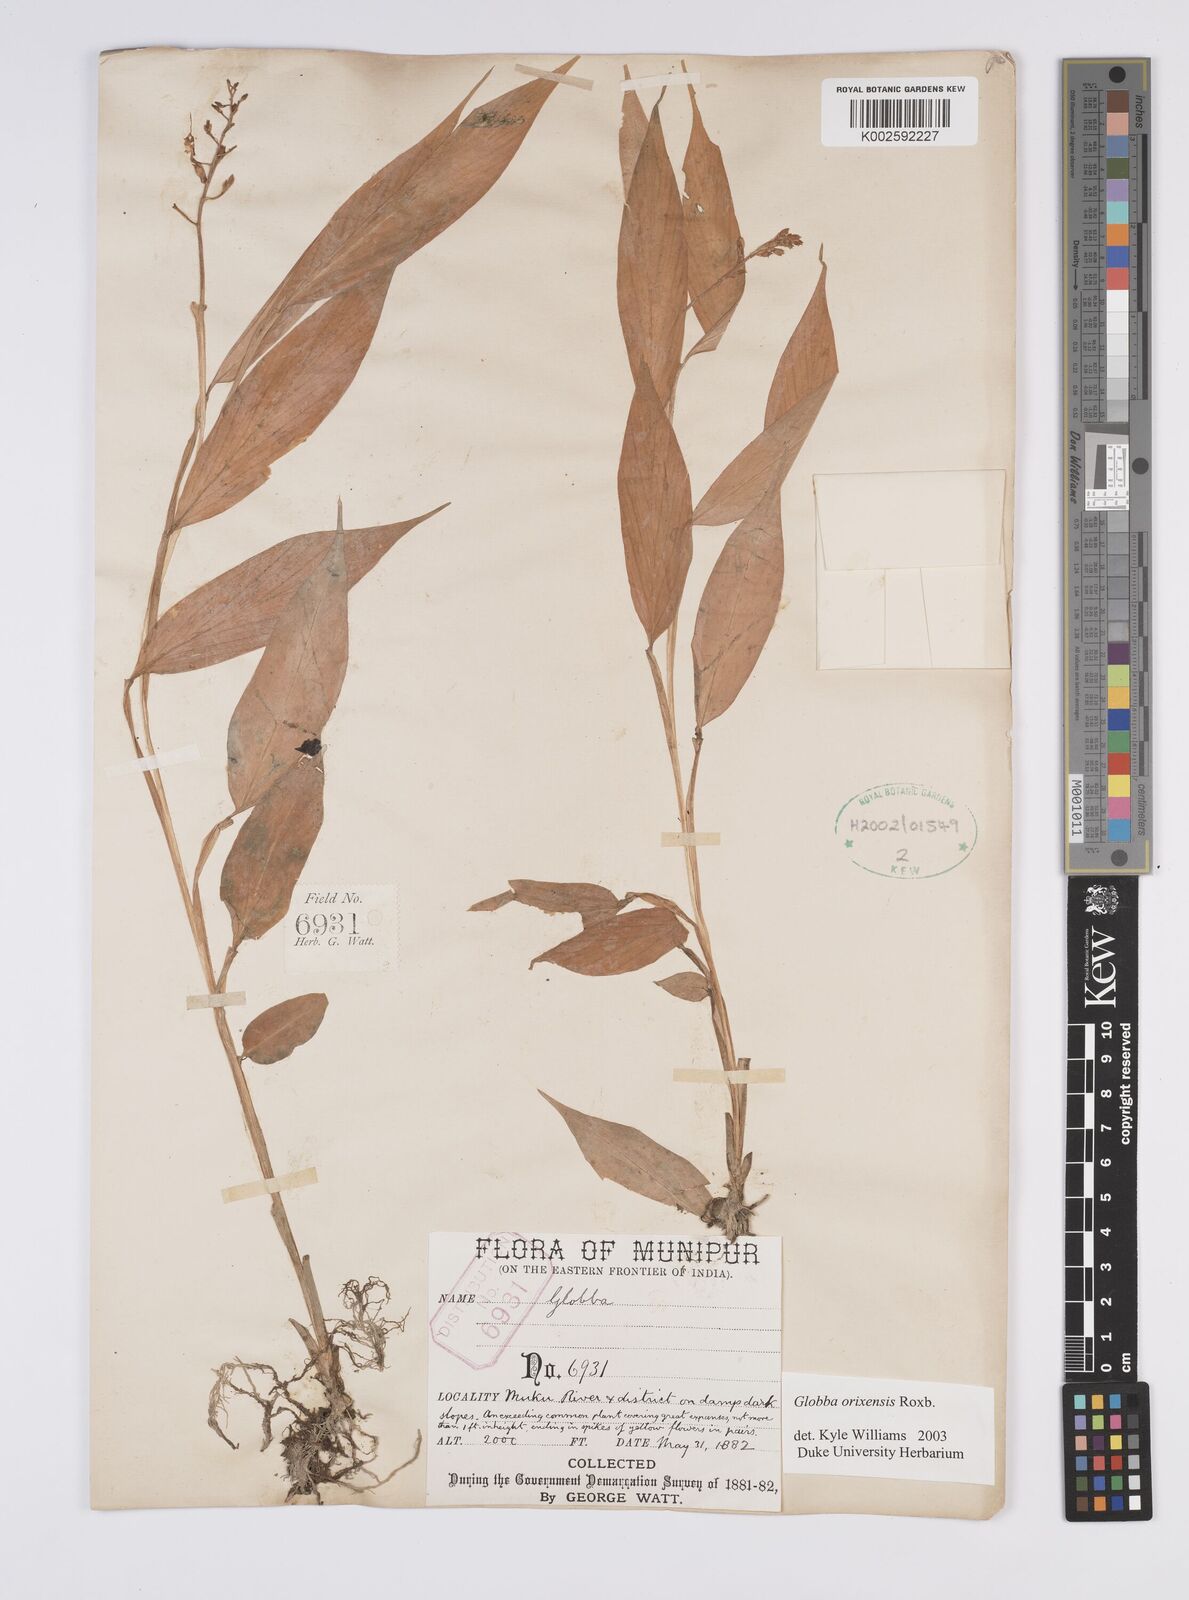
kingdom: Plantae
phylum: Tracheophyta
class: Liliopsida
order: Zingiberales
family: Zingiberaceae
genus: Globba
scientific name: Globba orixensis
